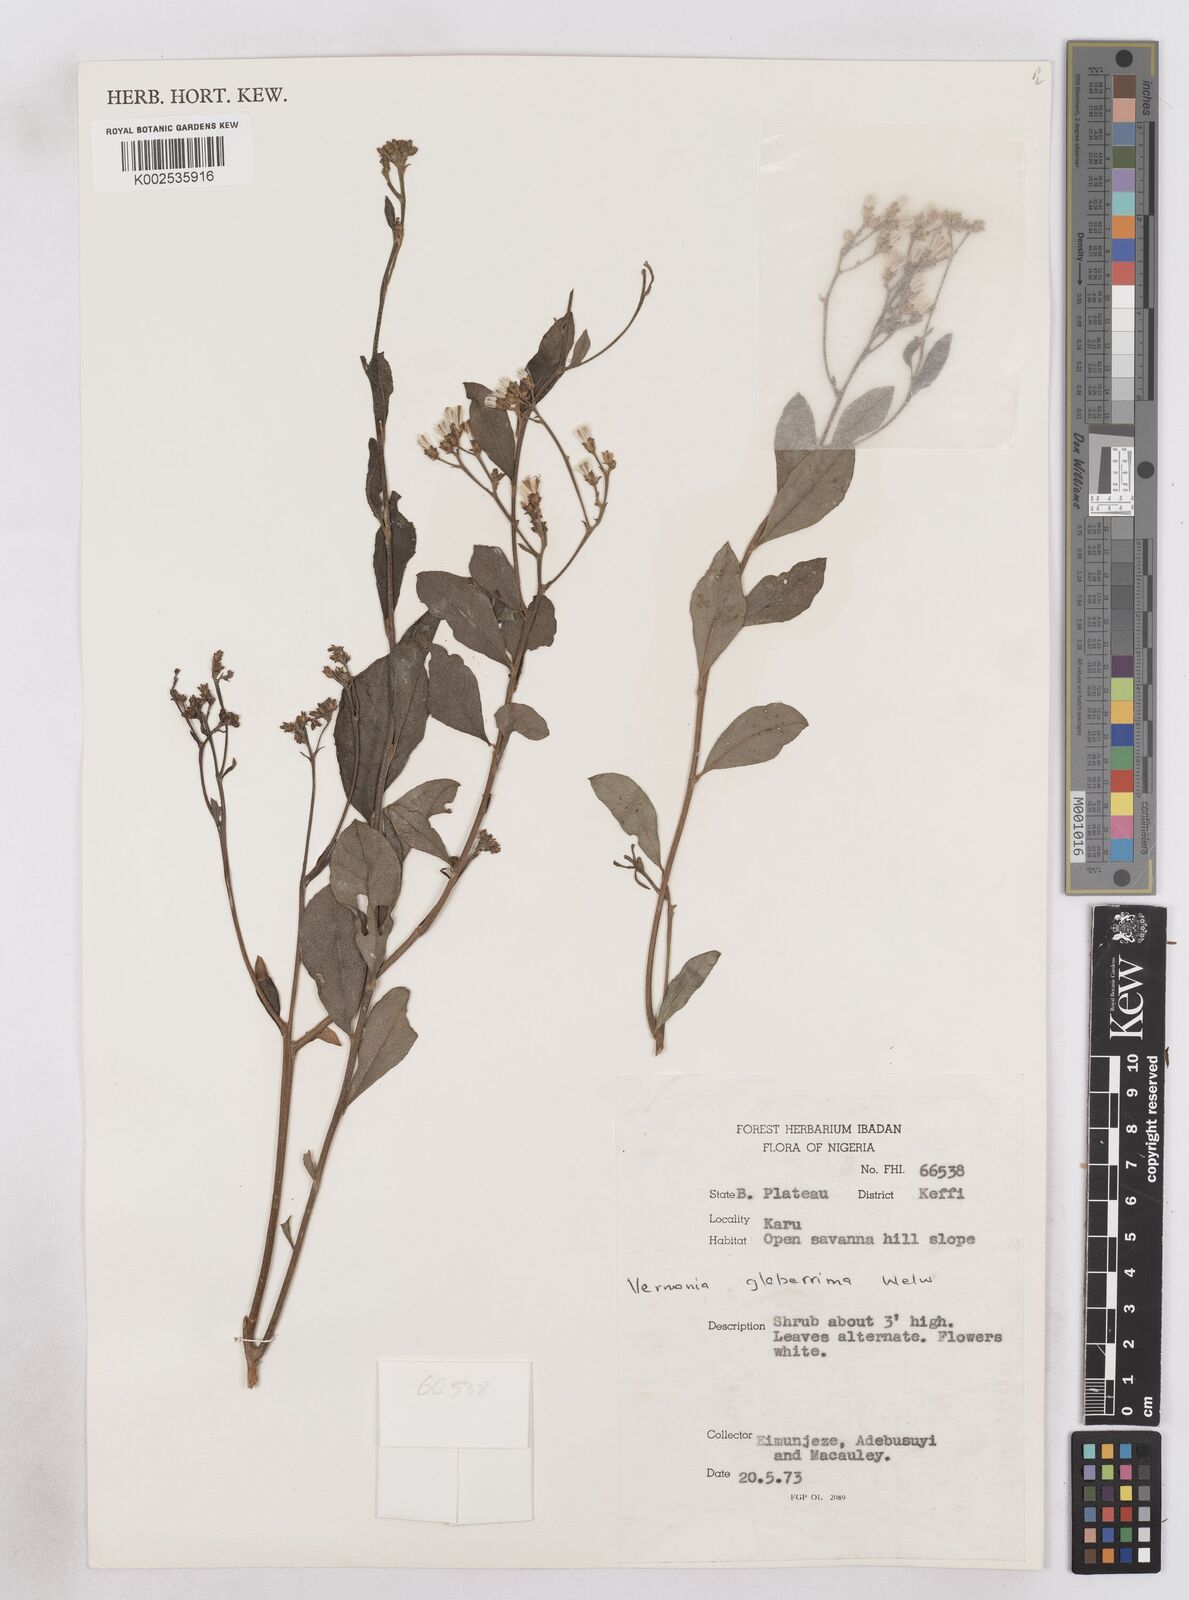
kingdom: Plantae
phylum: Tracheophyta
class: Magnoliopsida
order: Asterales
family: Asteraceae
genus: Gymnanthemum
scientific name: Gymnanthemum glaberrimum
